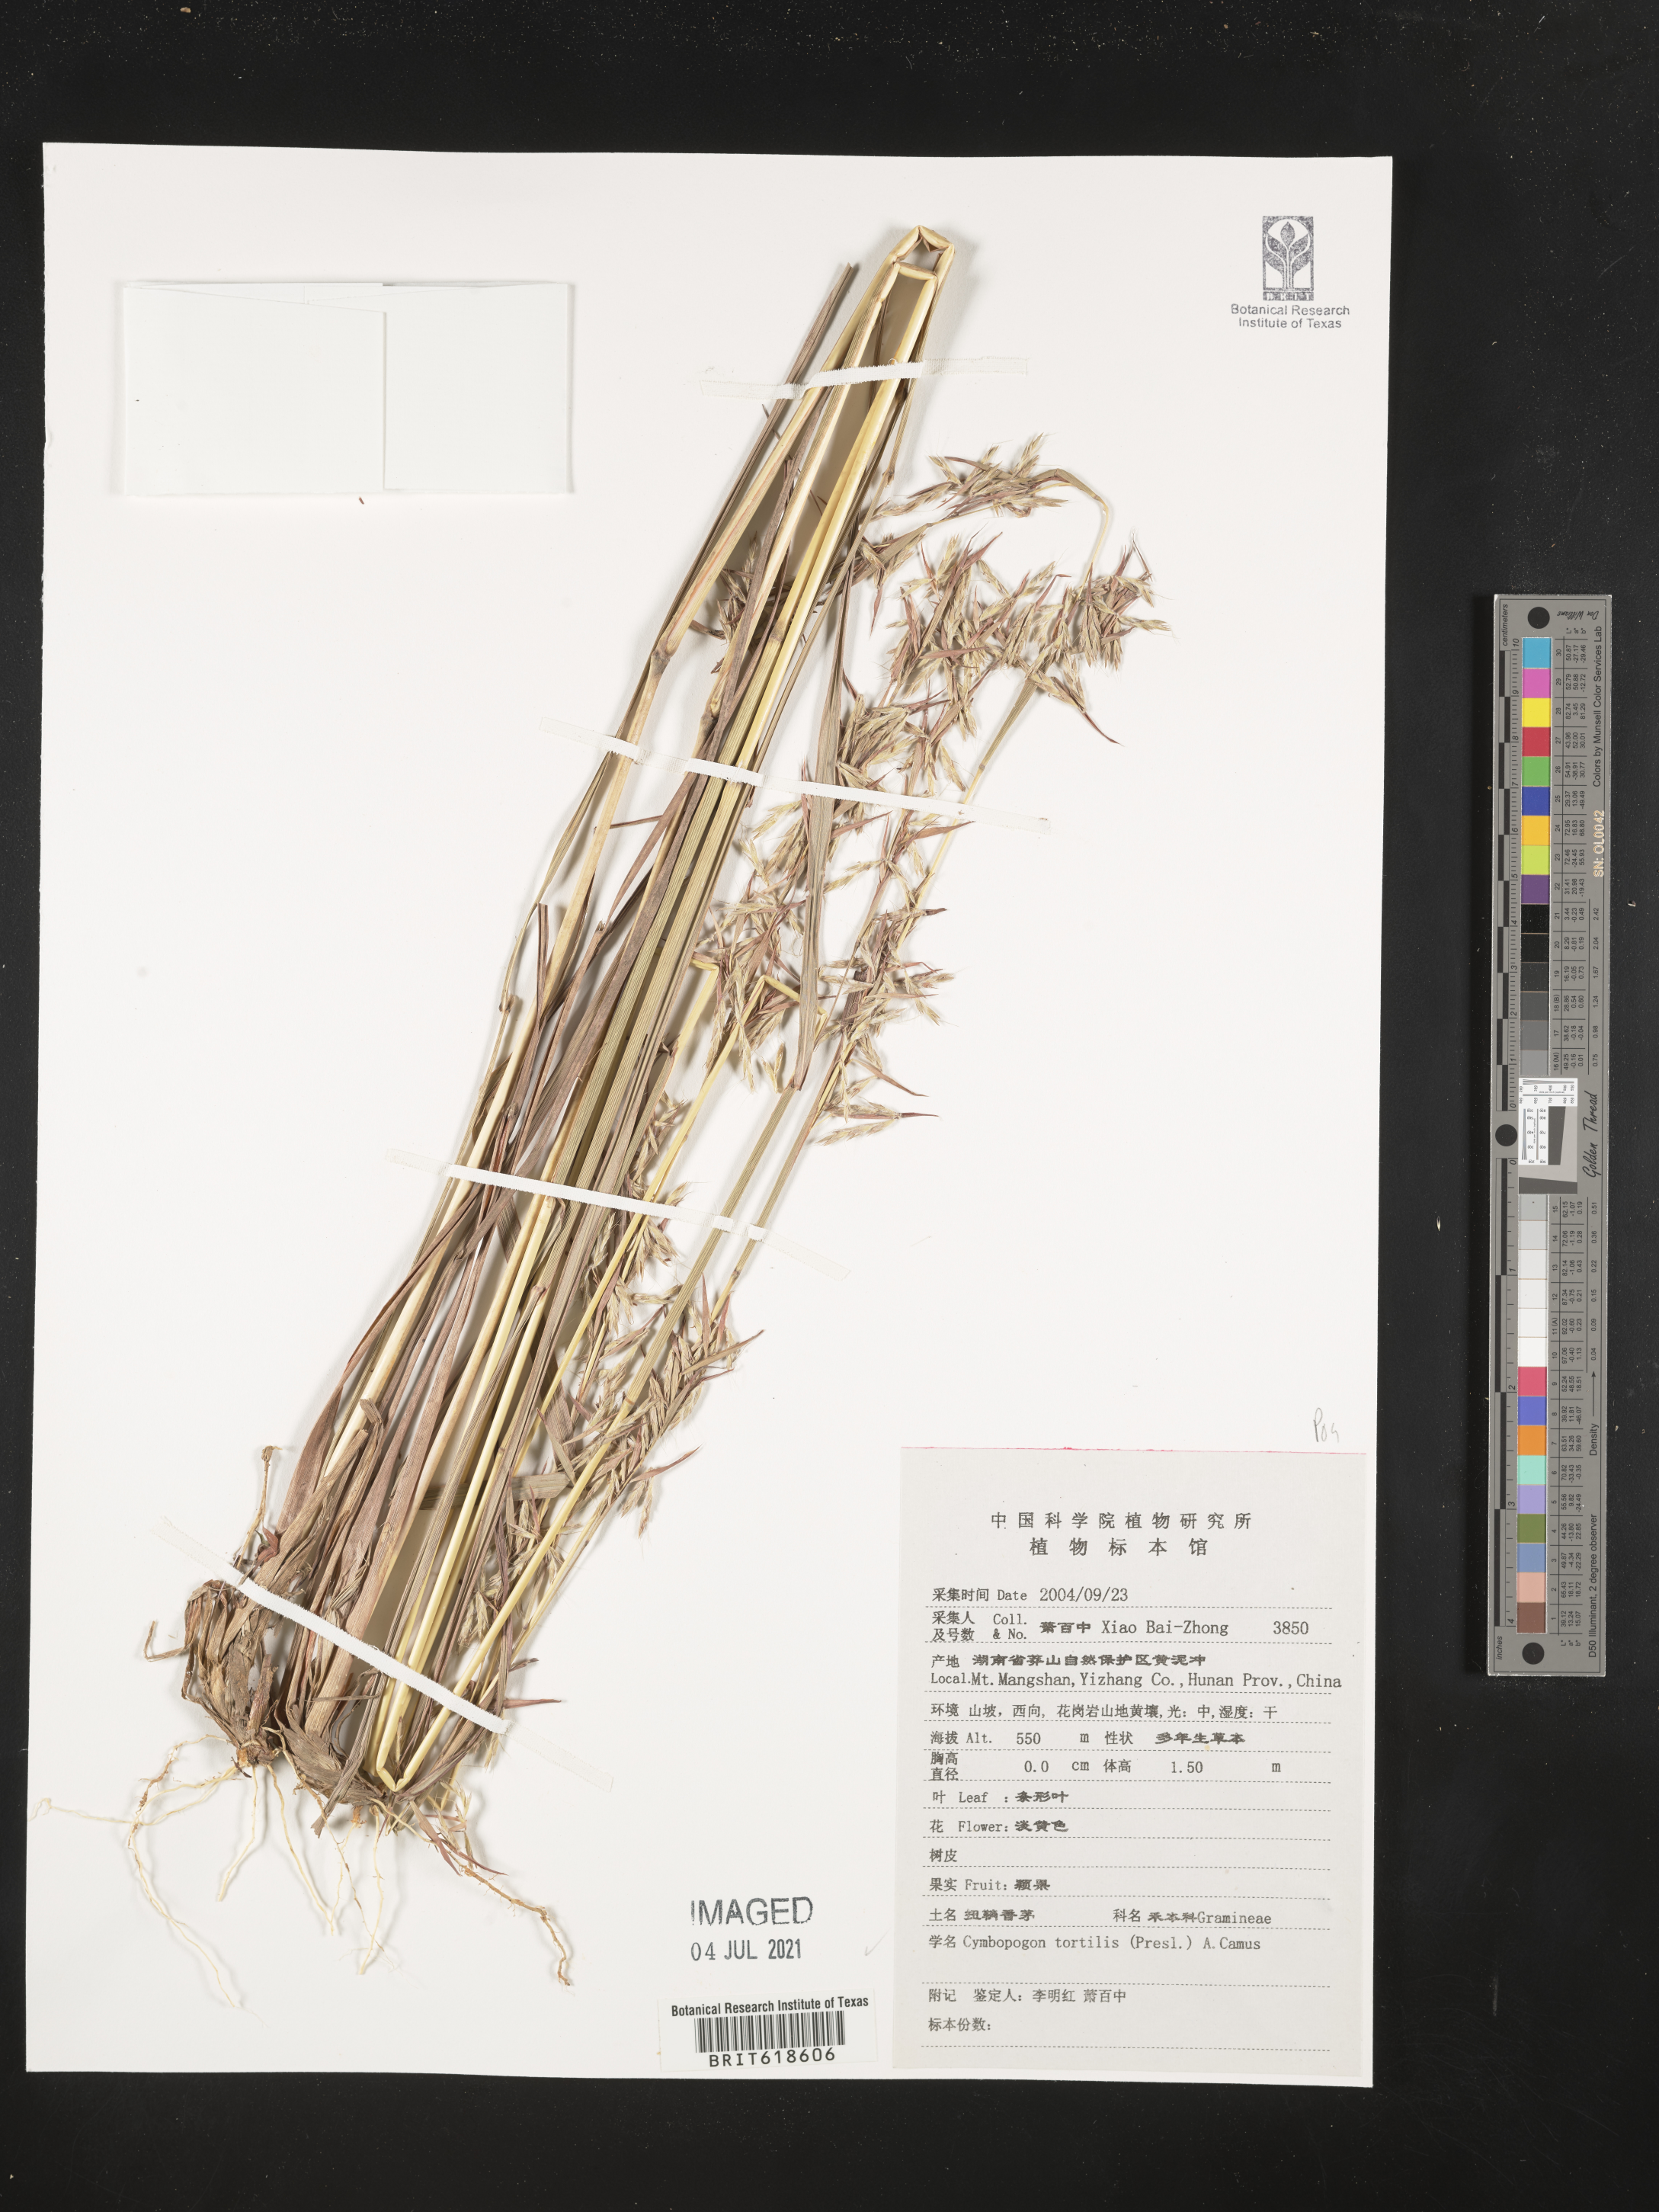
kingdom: Plantae
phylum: Tracheophyta
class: Liliopsida
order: Poales
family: Poaceae
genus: Cymbopogon
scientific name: Cymbopogon tortilis
